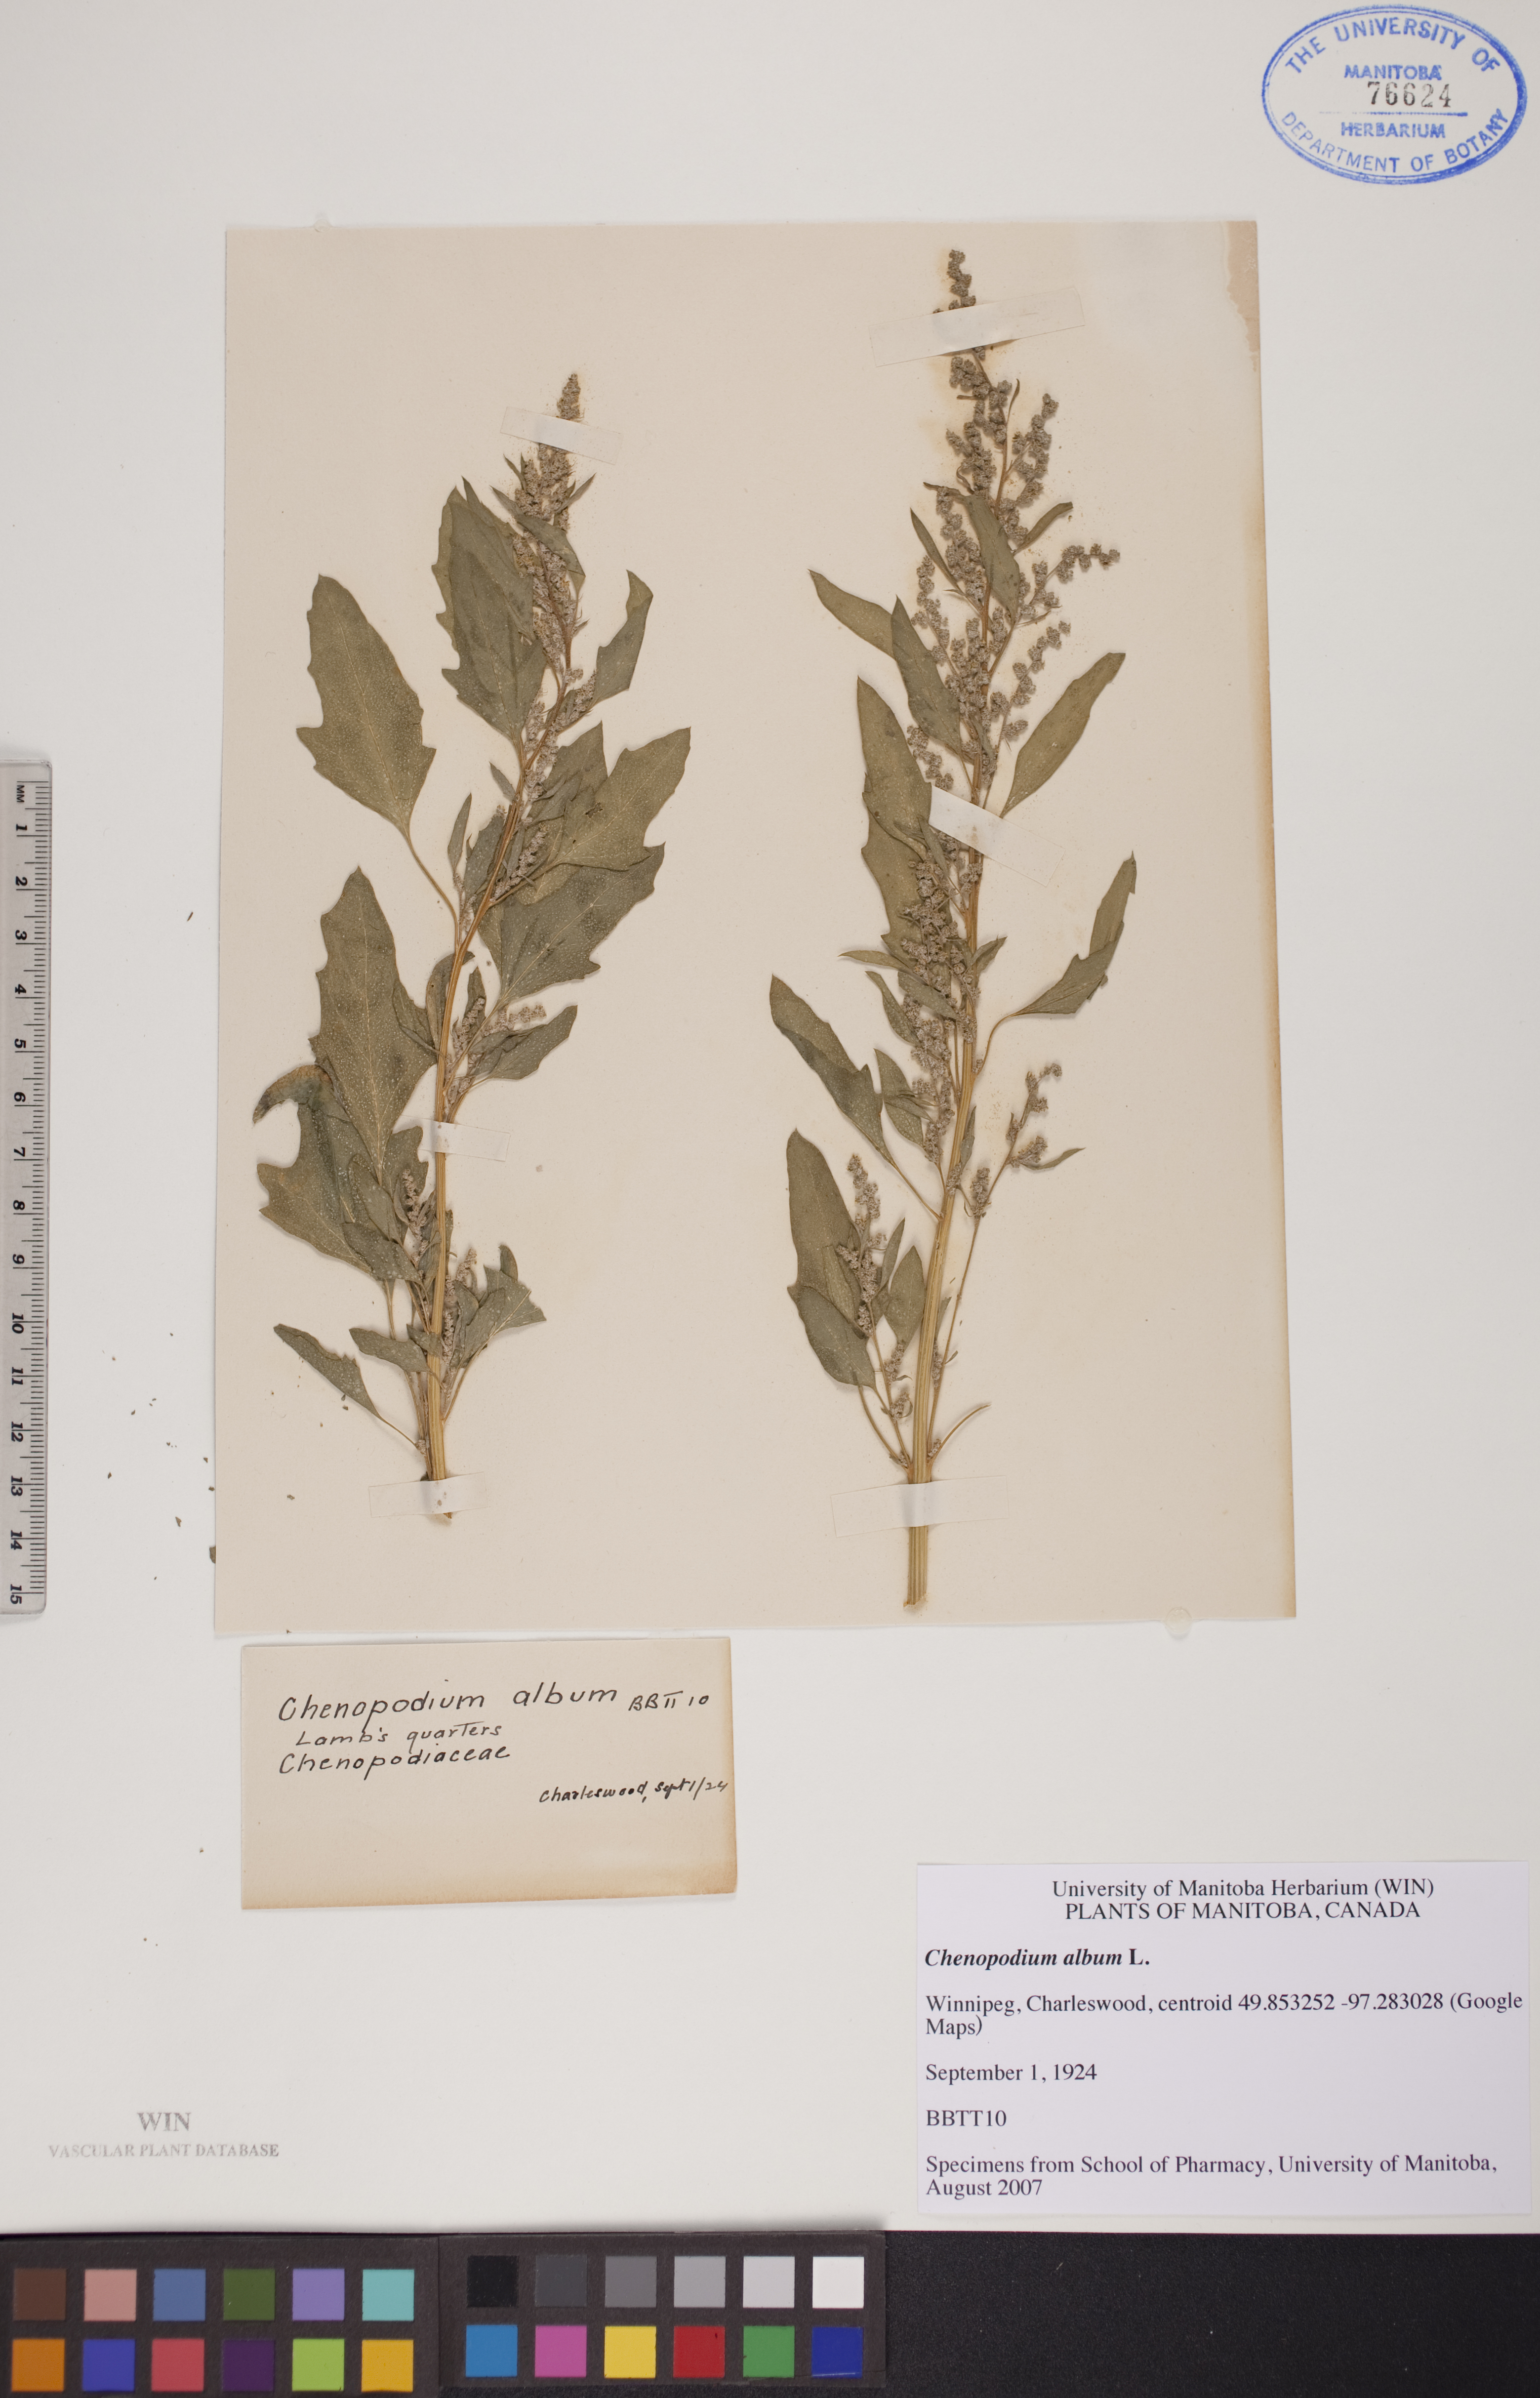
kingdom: Plantae
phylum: Tracheophyta
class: Magnoliopsida
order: Caryophyllales
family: Amaranthaceae
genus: Chenopodium
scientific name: Chenopodium album
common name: Fat-hen
